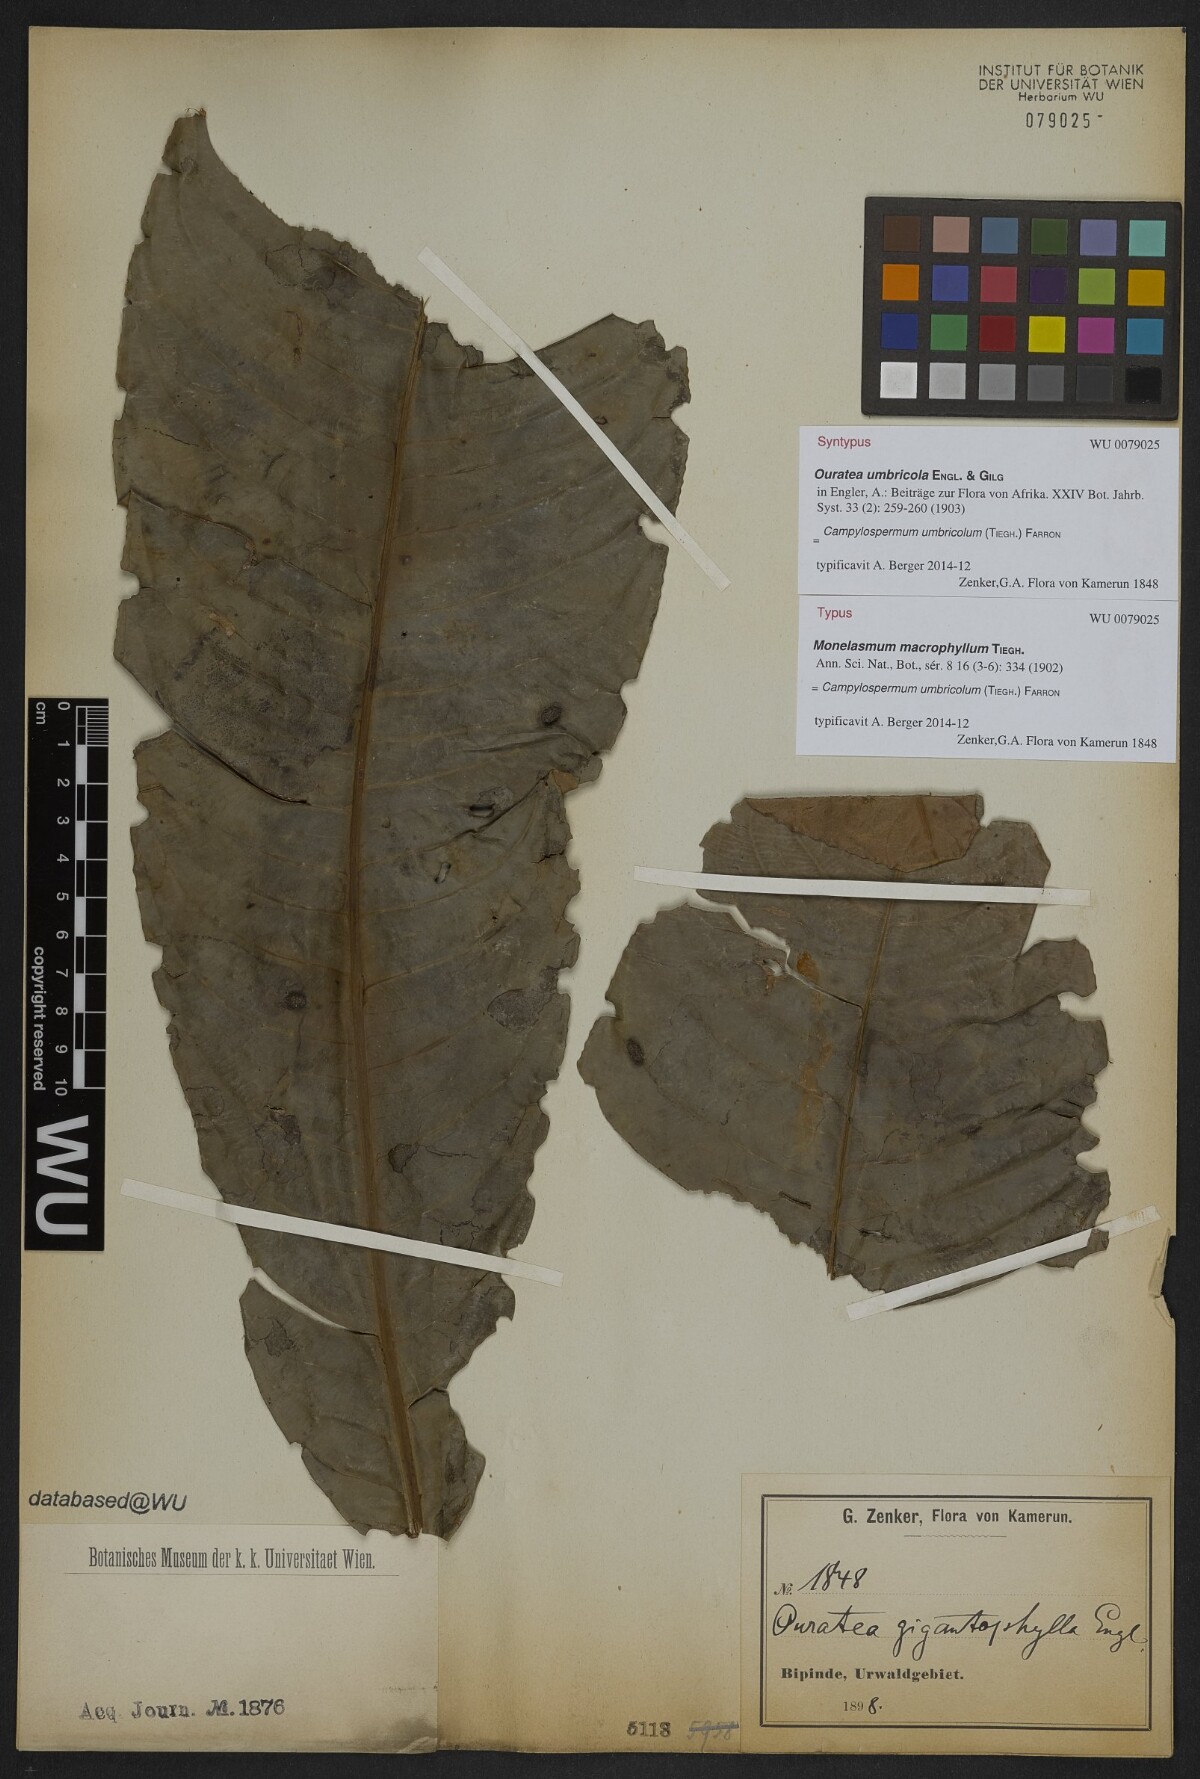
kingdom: Plantae
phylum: Tracheophyta
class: Magnoliopsida
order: Malpighiales
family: Ochnaceae
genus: Campylospermum
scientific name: Campylospermum umbricola
